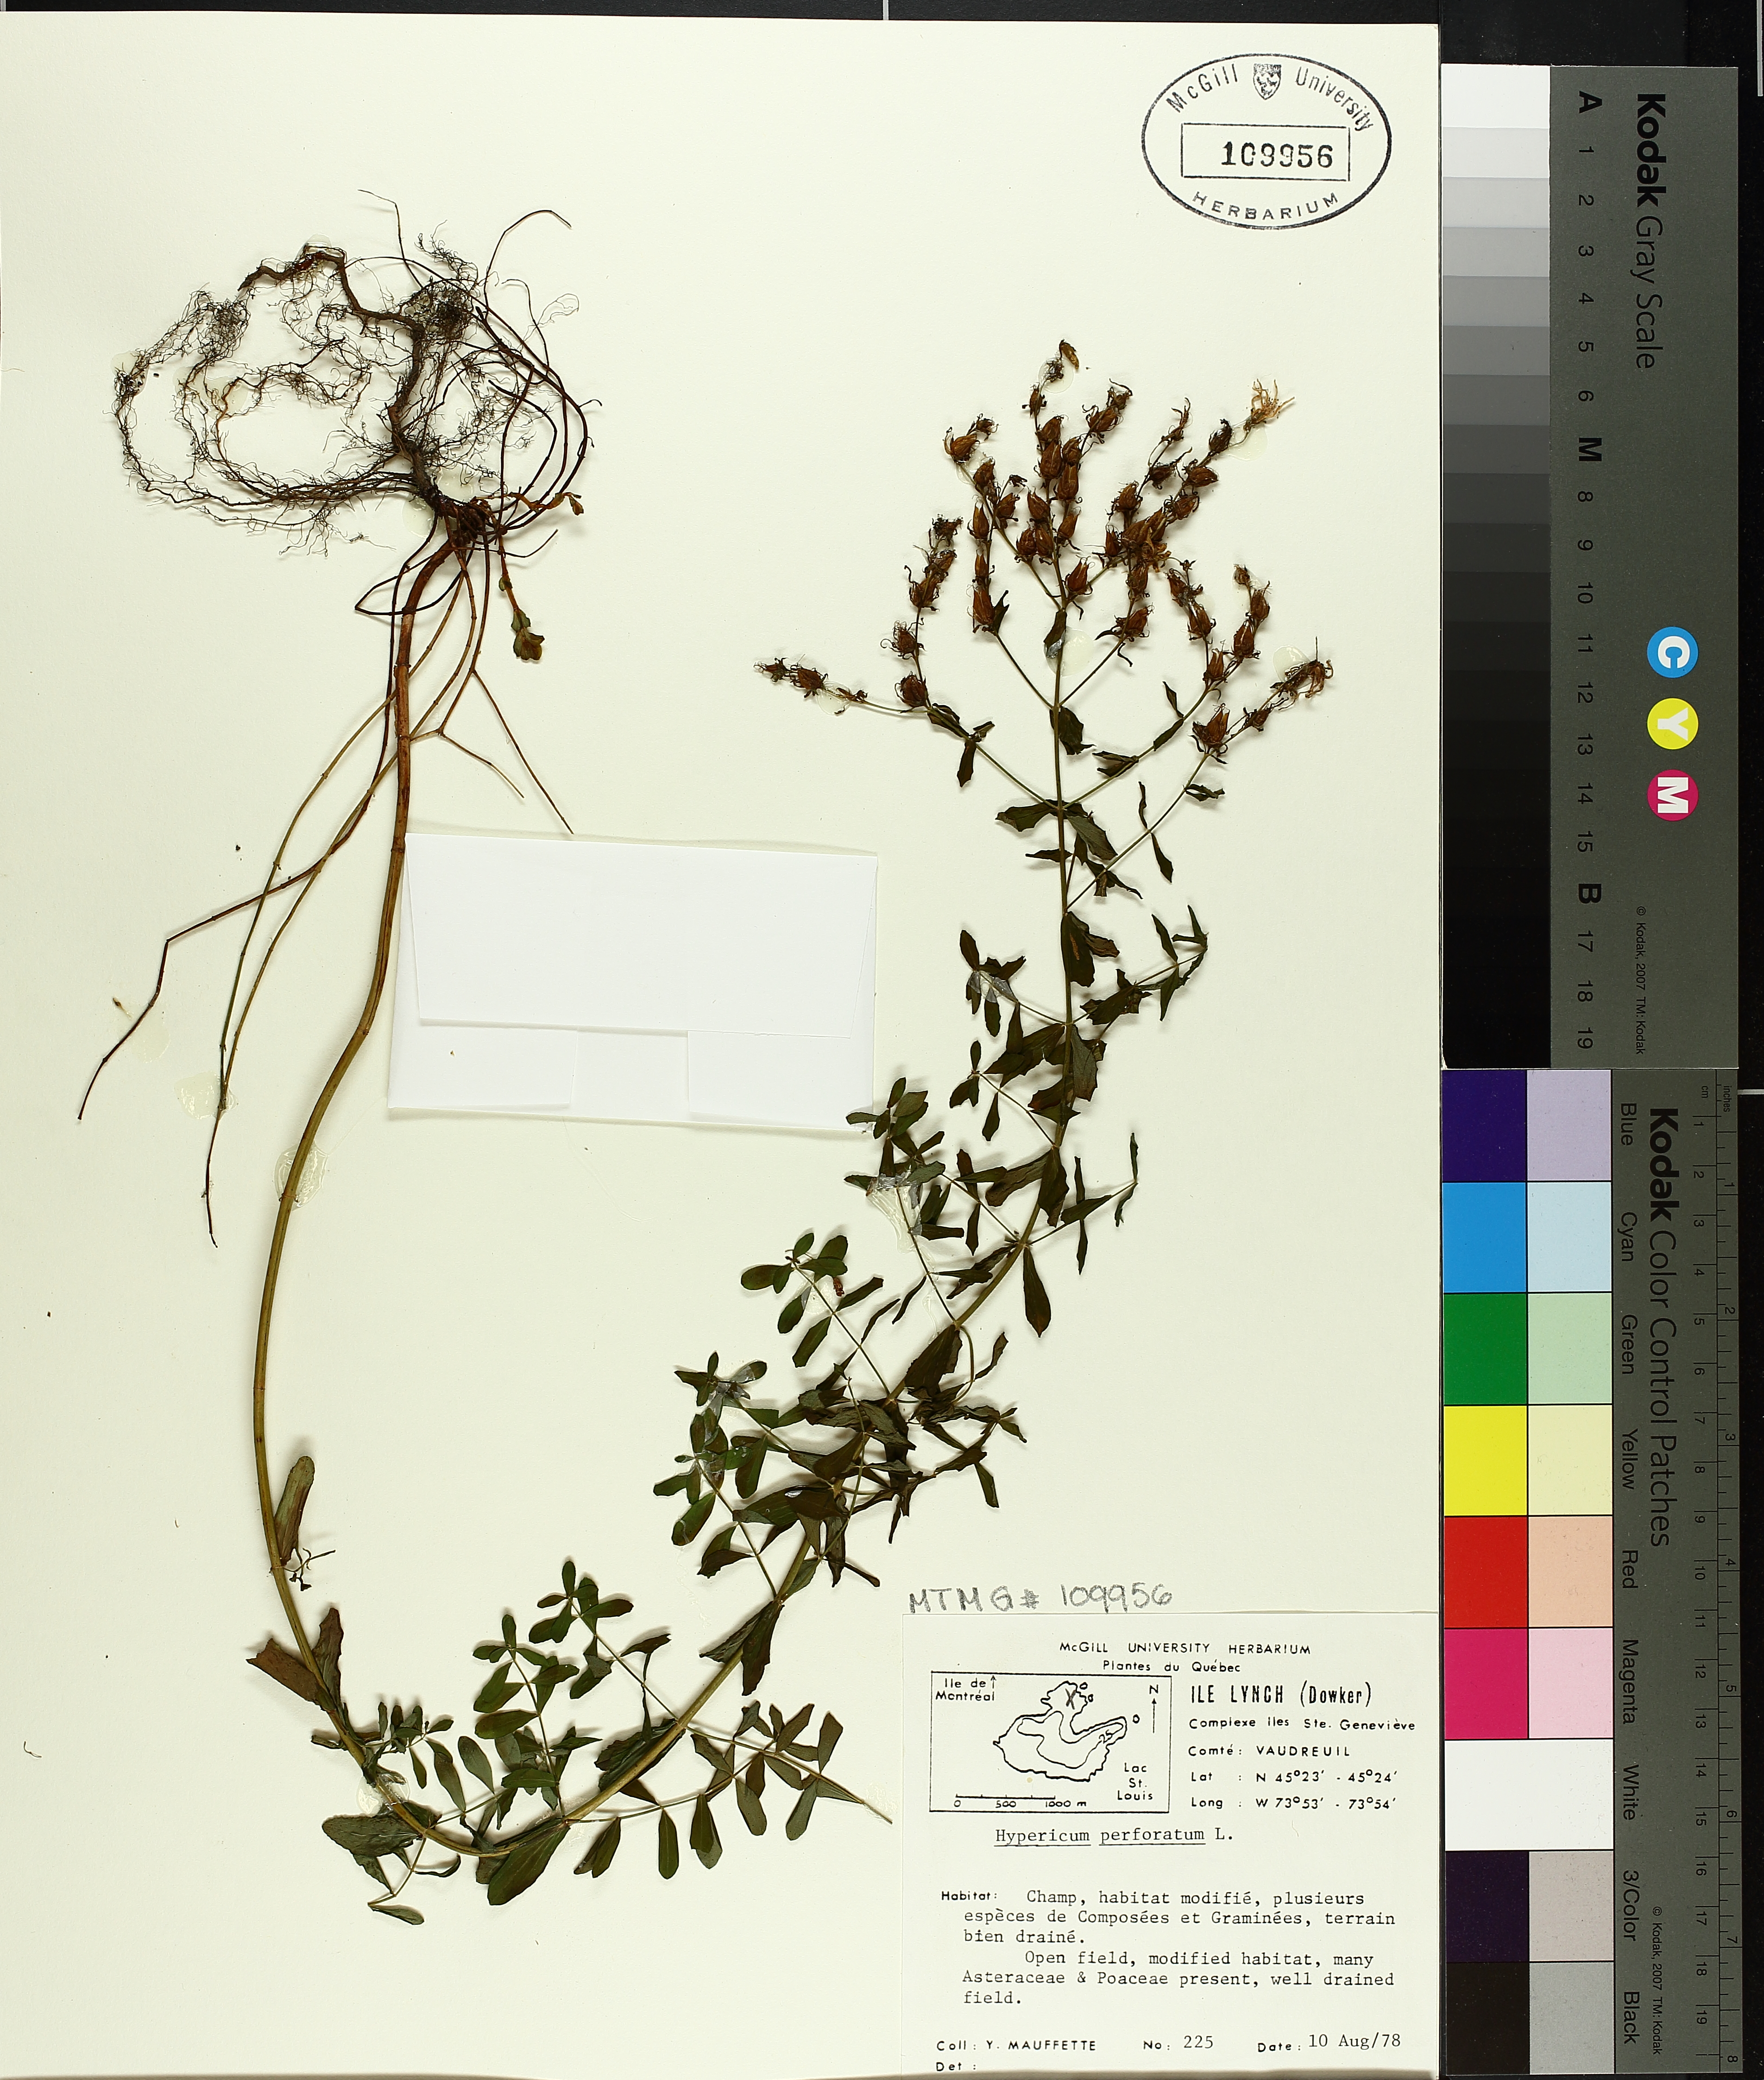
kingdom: Plantae
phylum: Tracheophyta
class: Magnoliopsida
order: Malpighiales
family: Hypericaceae
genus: Hypericum
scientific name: Hypericum perforatum
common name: Common st. johnswort
